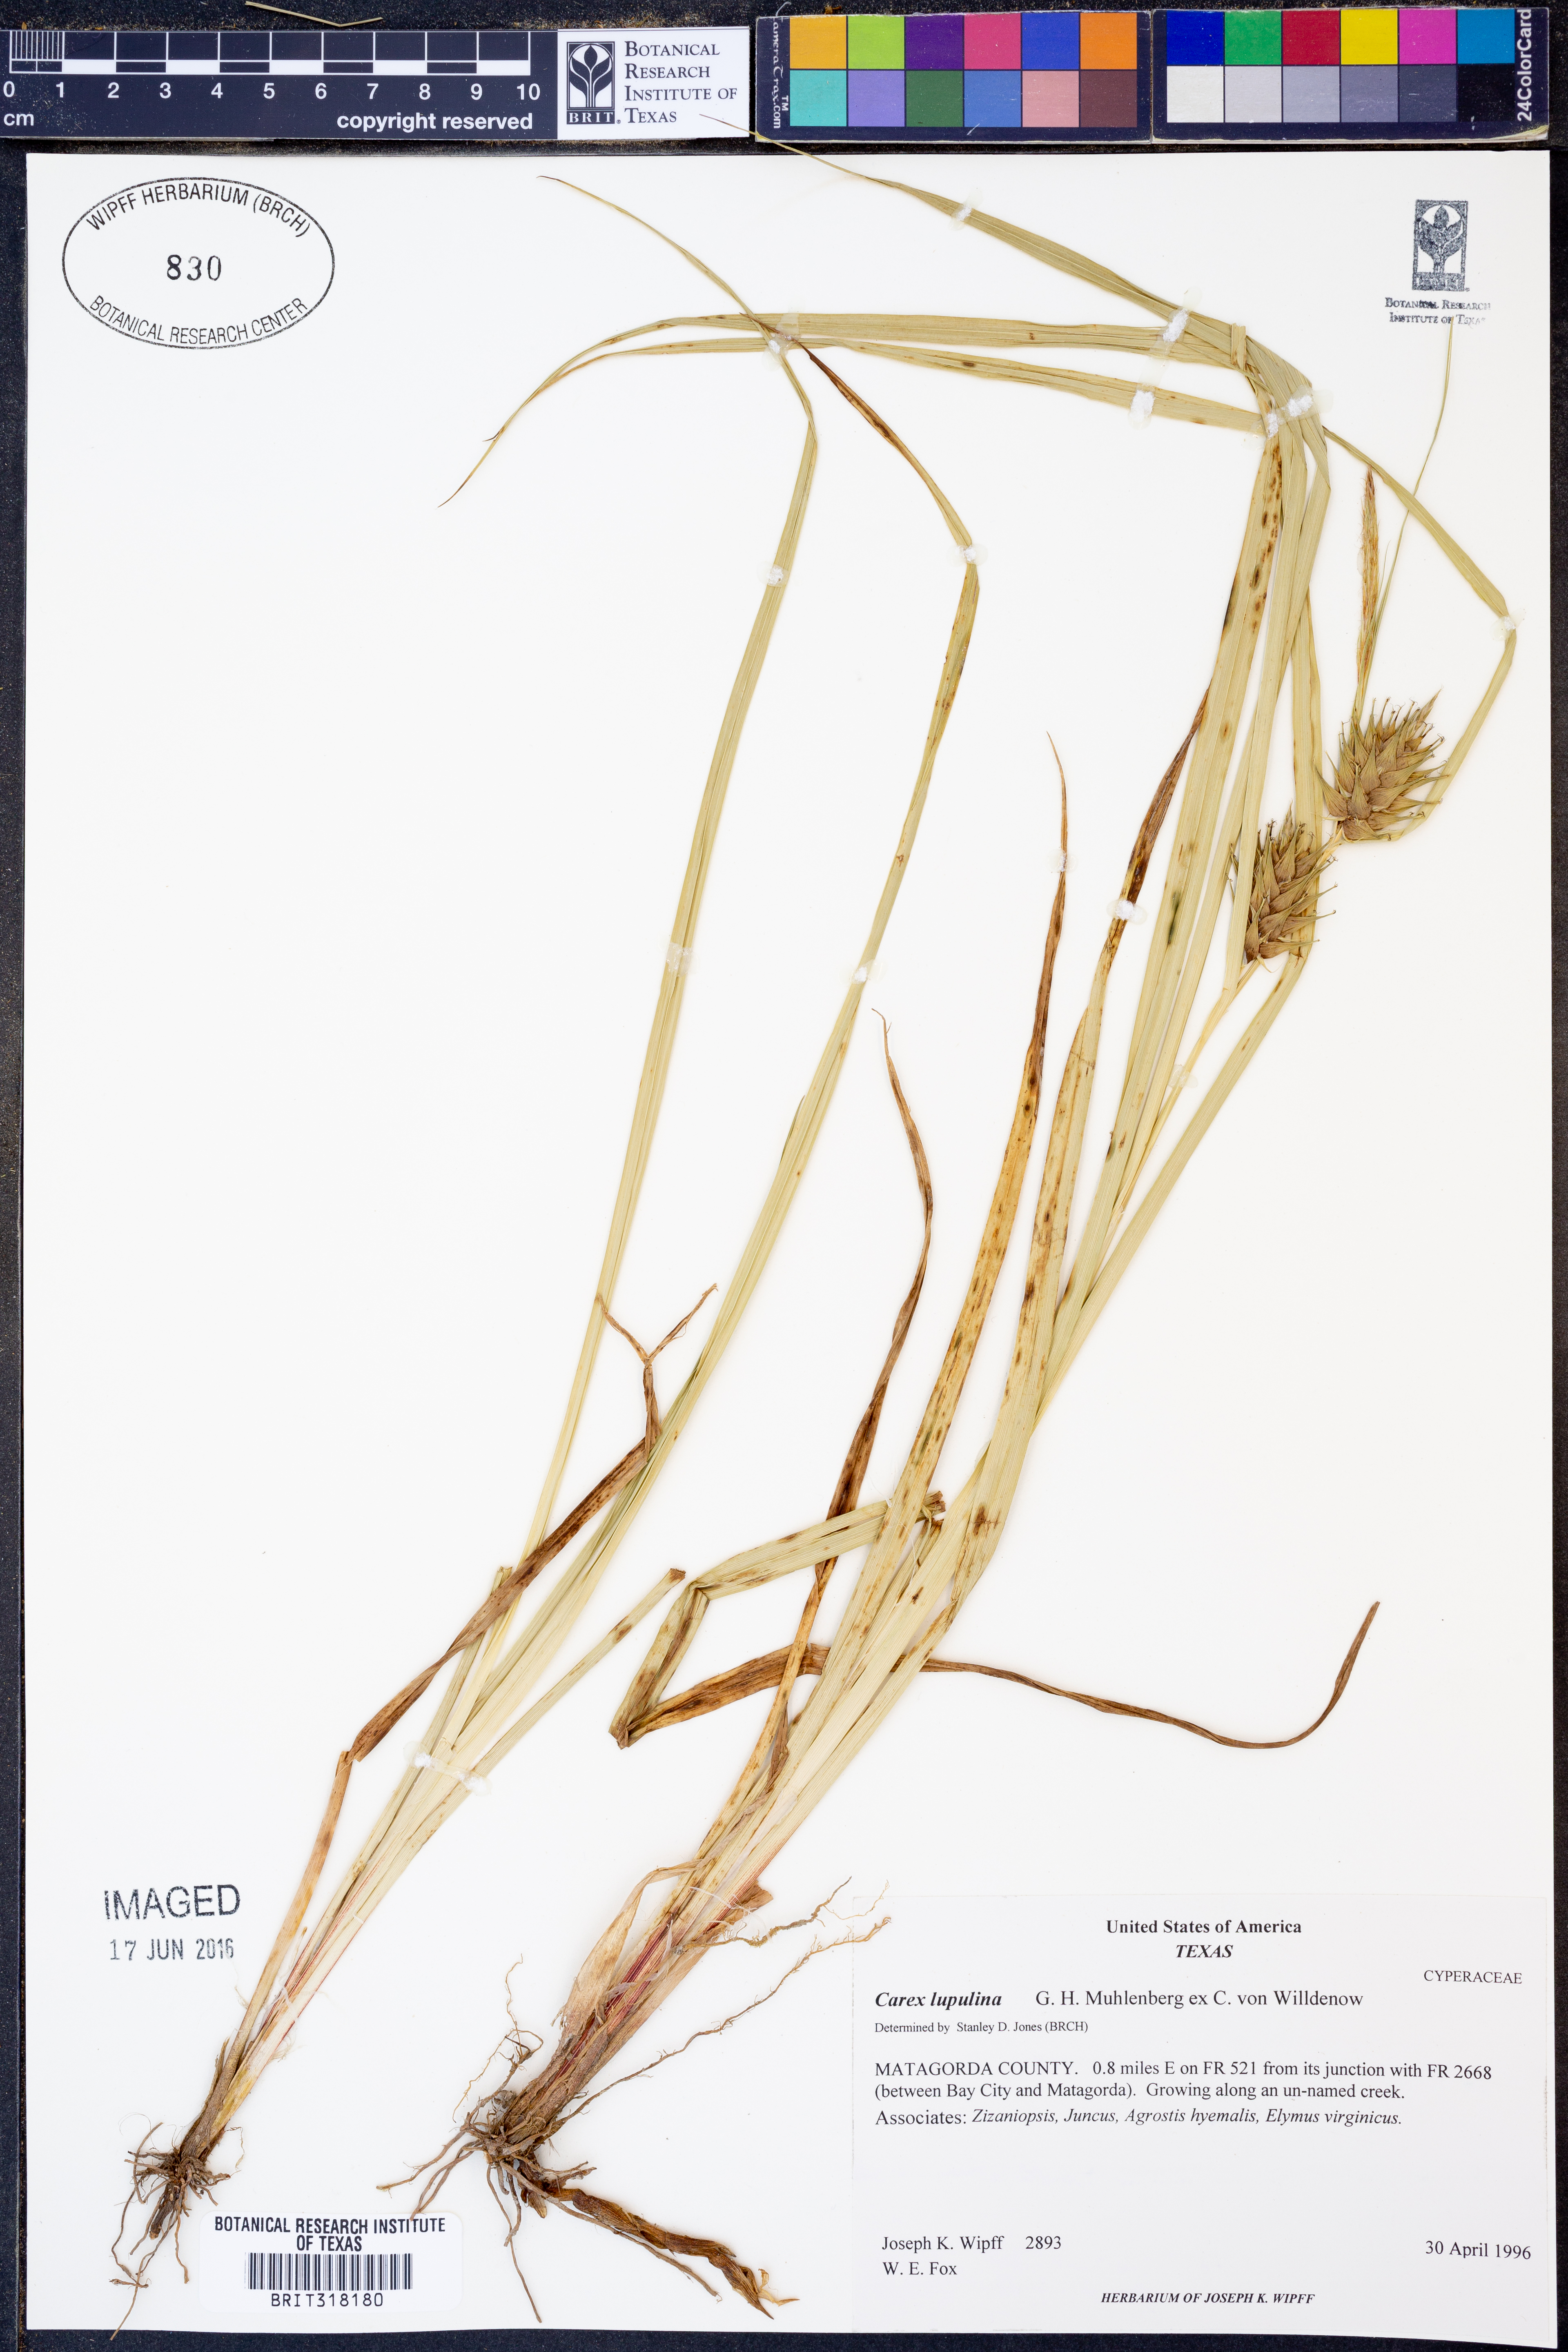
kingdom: Plantae
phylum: Tracheophyta
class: Liliopsida
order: Poales
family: Cyperaceae
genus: Carex
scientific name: Carex lupulina
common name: Hop sedge
